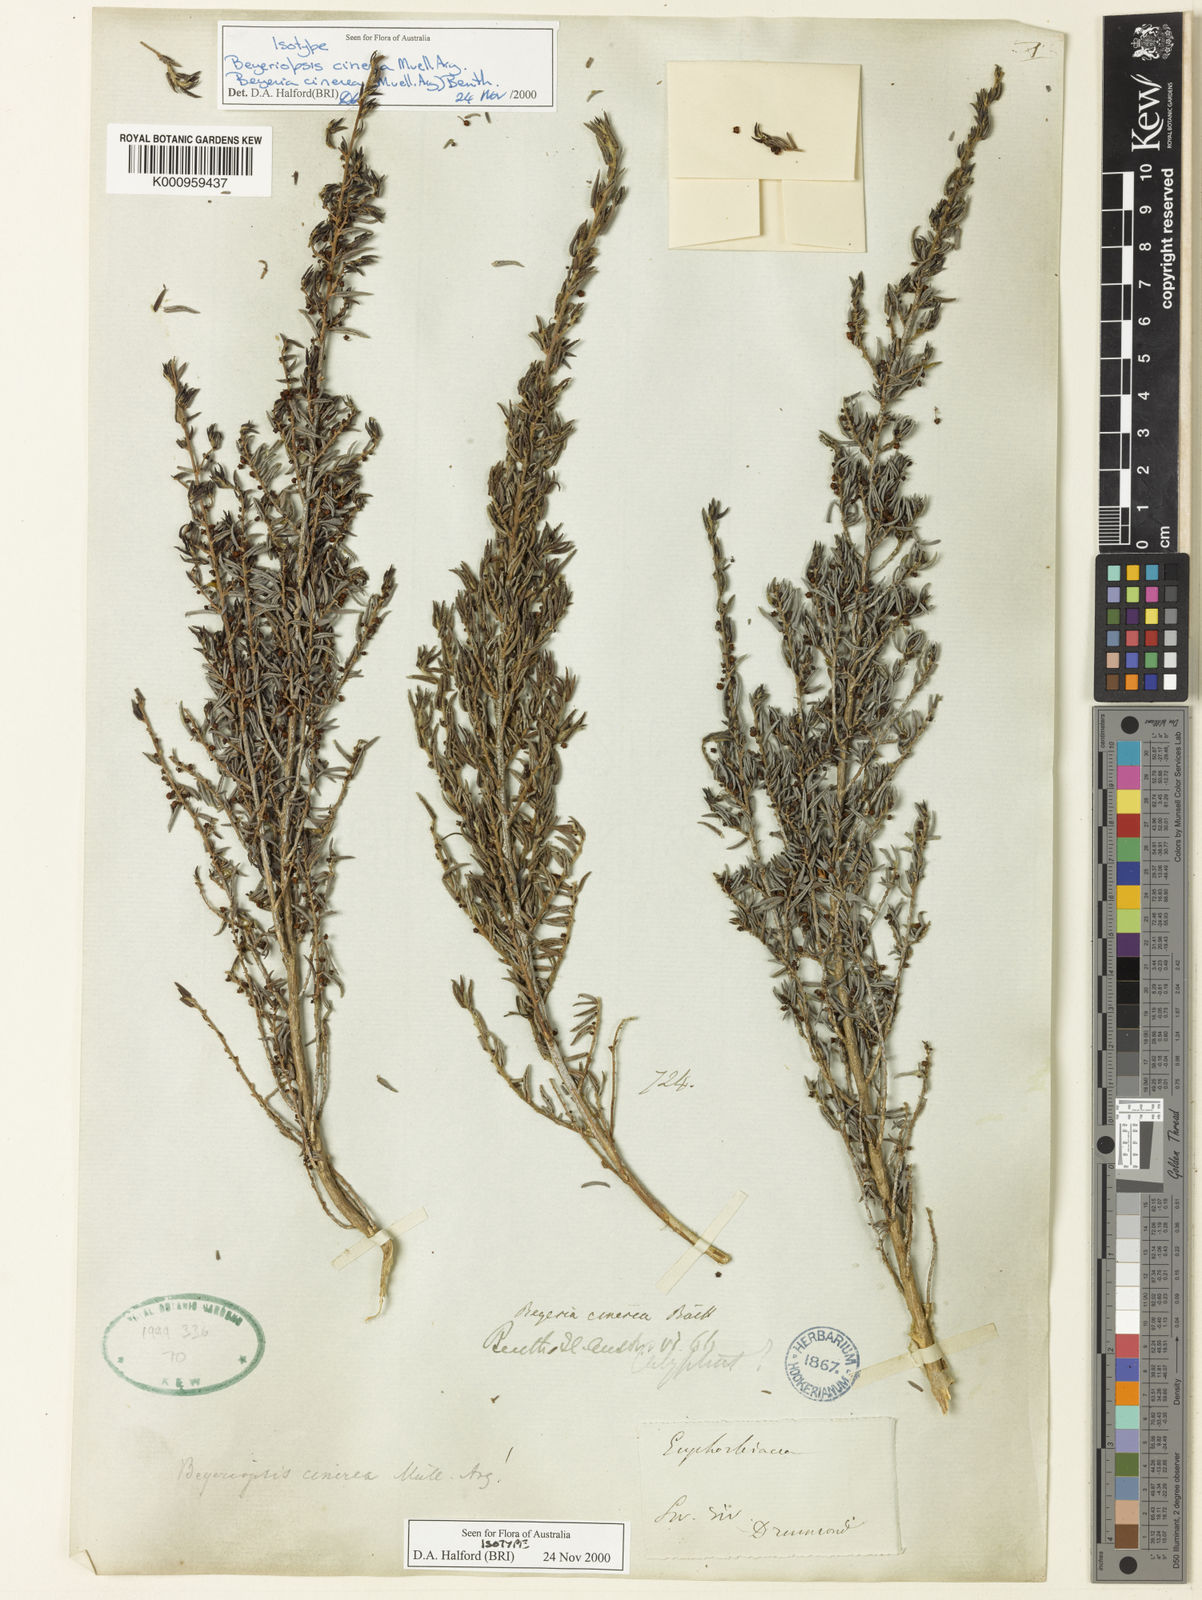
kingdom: Plantae
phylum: Tracheophyta
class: Magnoliopsida
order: Malpighiales
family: Euphorbiaceae
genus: Beyeria
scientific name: Beyeria
